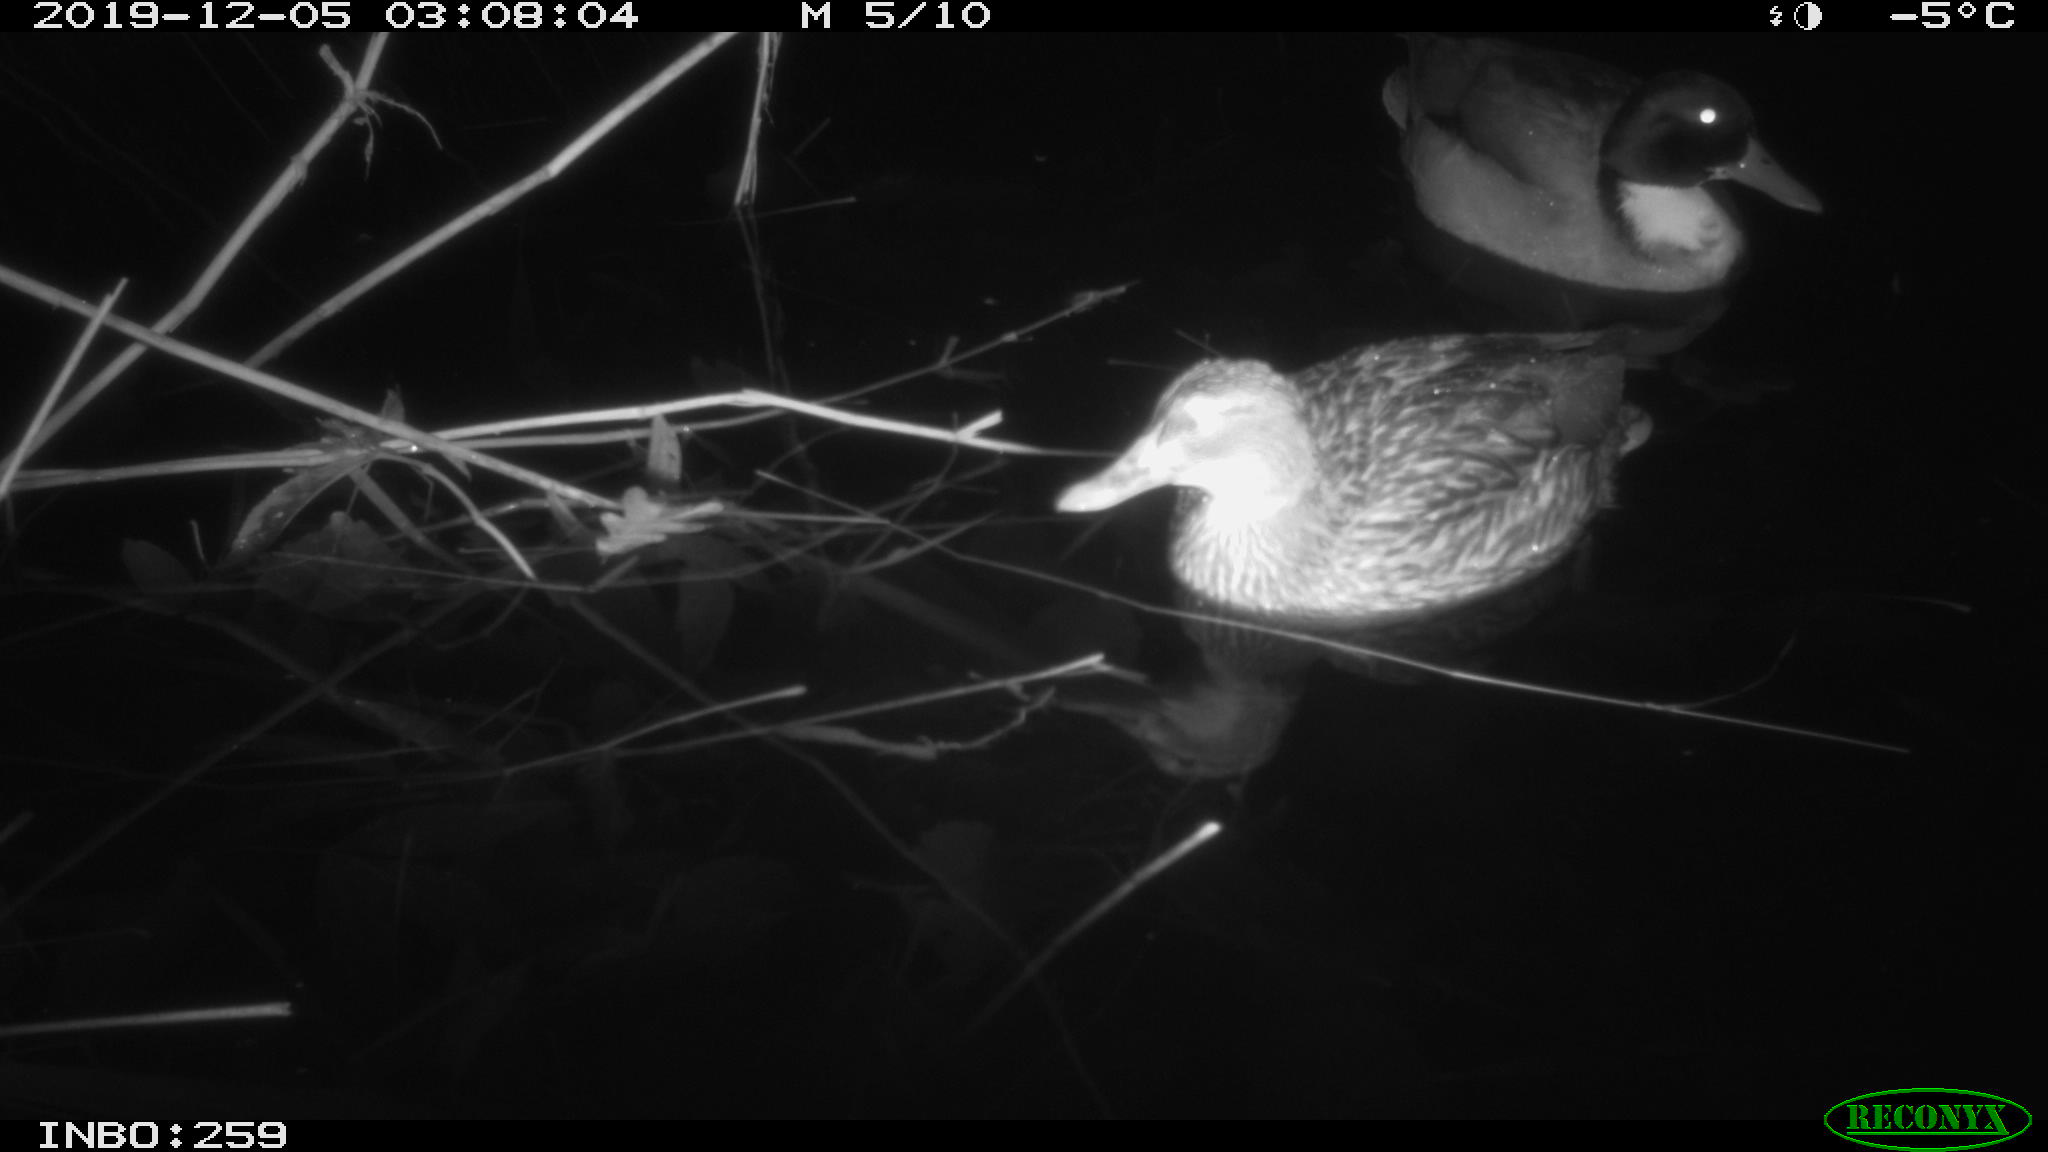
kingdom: Animalia
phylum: Chordata
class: Aves
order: Anseriformes
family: Anatidae
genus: Anas
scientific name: Anas platyrhynchos
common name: Mallard
